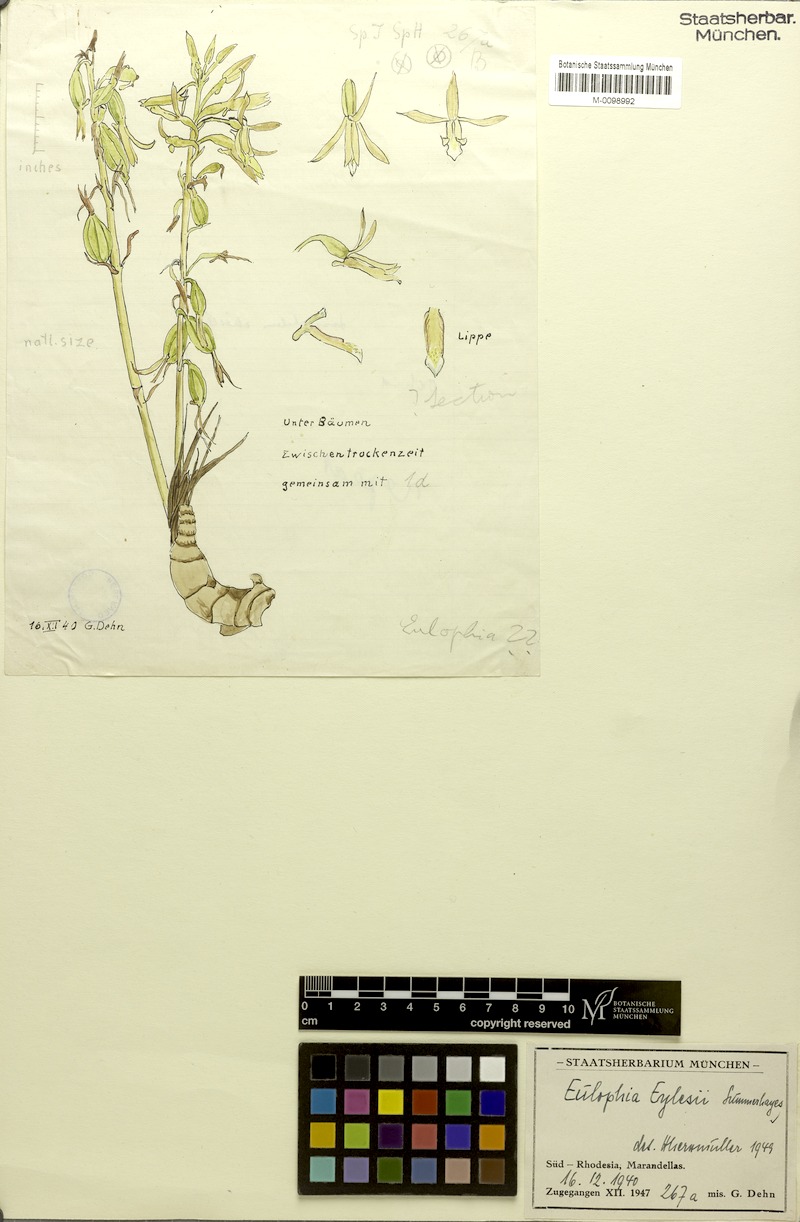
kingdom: Plantae
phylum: Tracheophyta
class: Liliopsida
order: Asparagales
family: Orchidaceae
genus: Eulophia
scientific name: Eulophia eylesii
